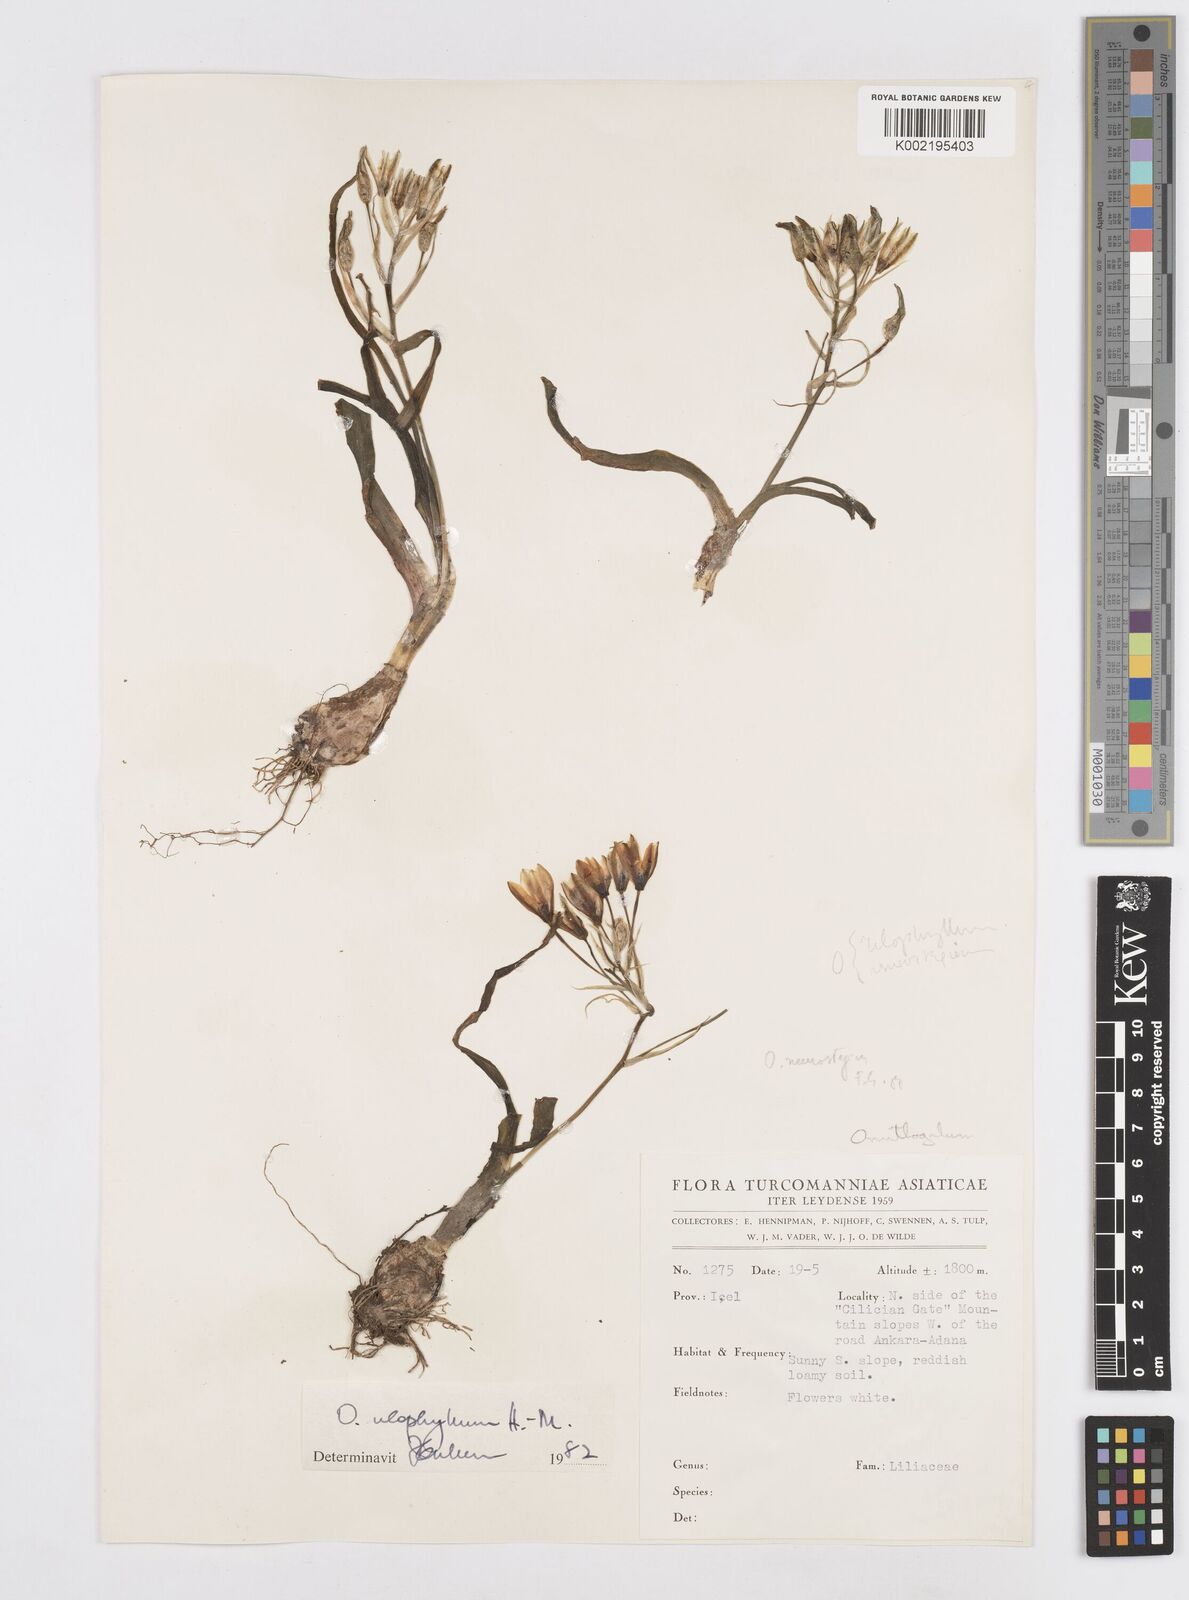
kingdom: Plantae
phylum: Tracheophyta
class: Liliopsida
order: Asparagales
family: Asparagaceae
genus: Ornithogalum
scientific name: Ornithogalum neurostegium
